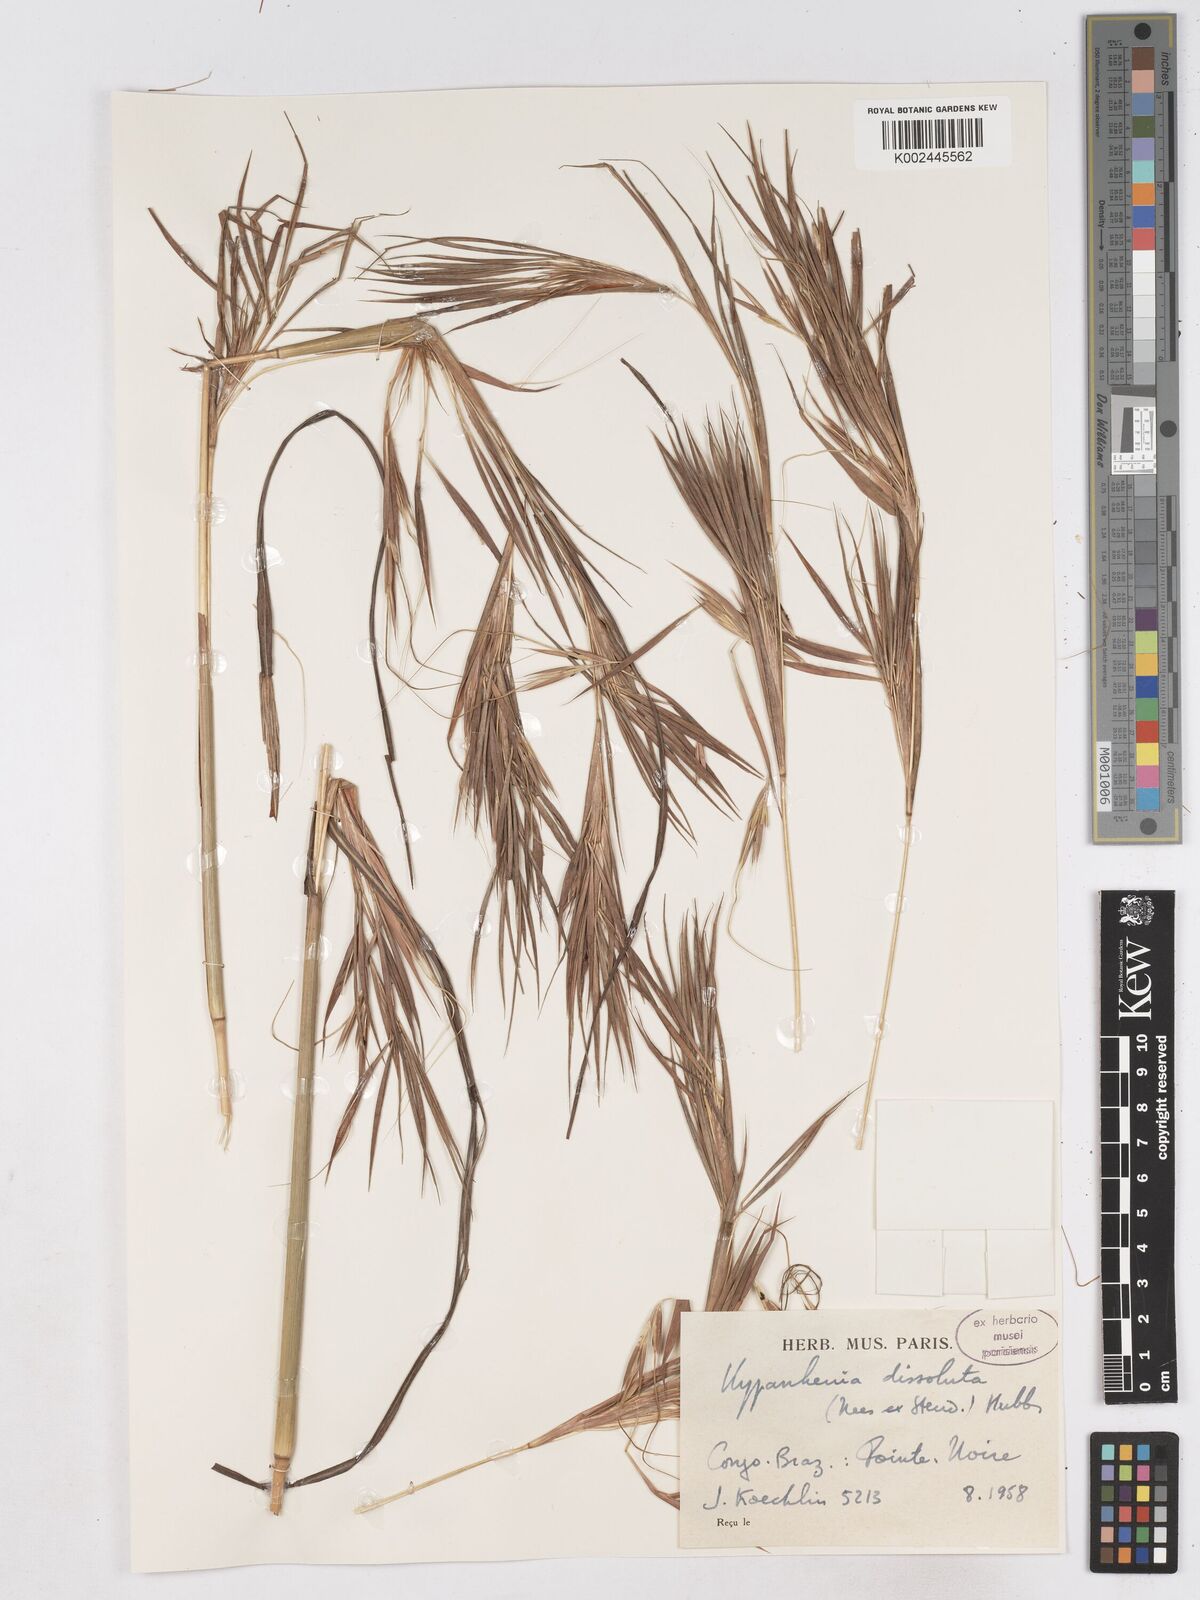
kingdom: Plantae
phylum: Tracheophyta
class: Liliopsida
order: Poales
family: Poaceae
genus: Hyperthelia
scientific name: Hyperthelia dissoluta
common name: Yellow thatching grass
